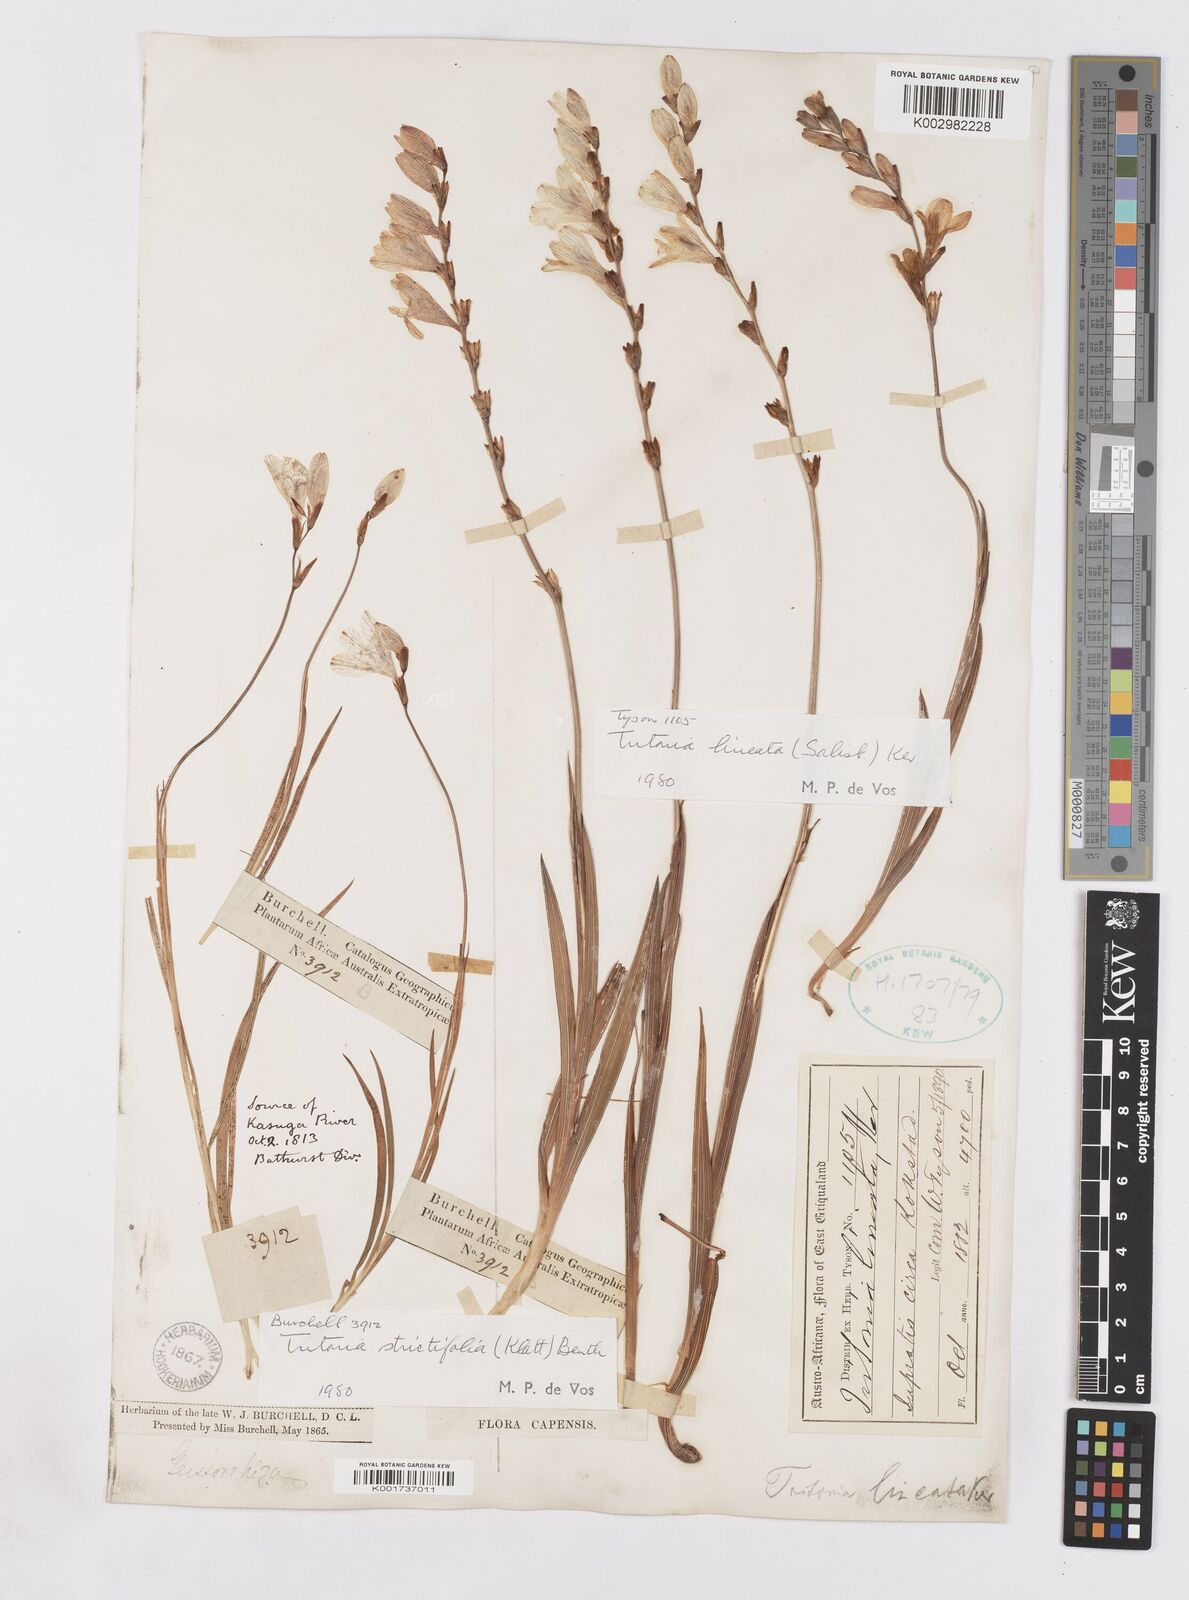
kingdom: Plantae
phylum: Tracheophyta
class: Liliopsida
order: Asparagales
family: Iridaceae
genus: Tritonia
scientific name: Tritonia gladiolaris
